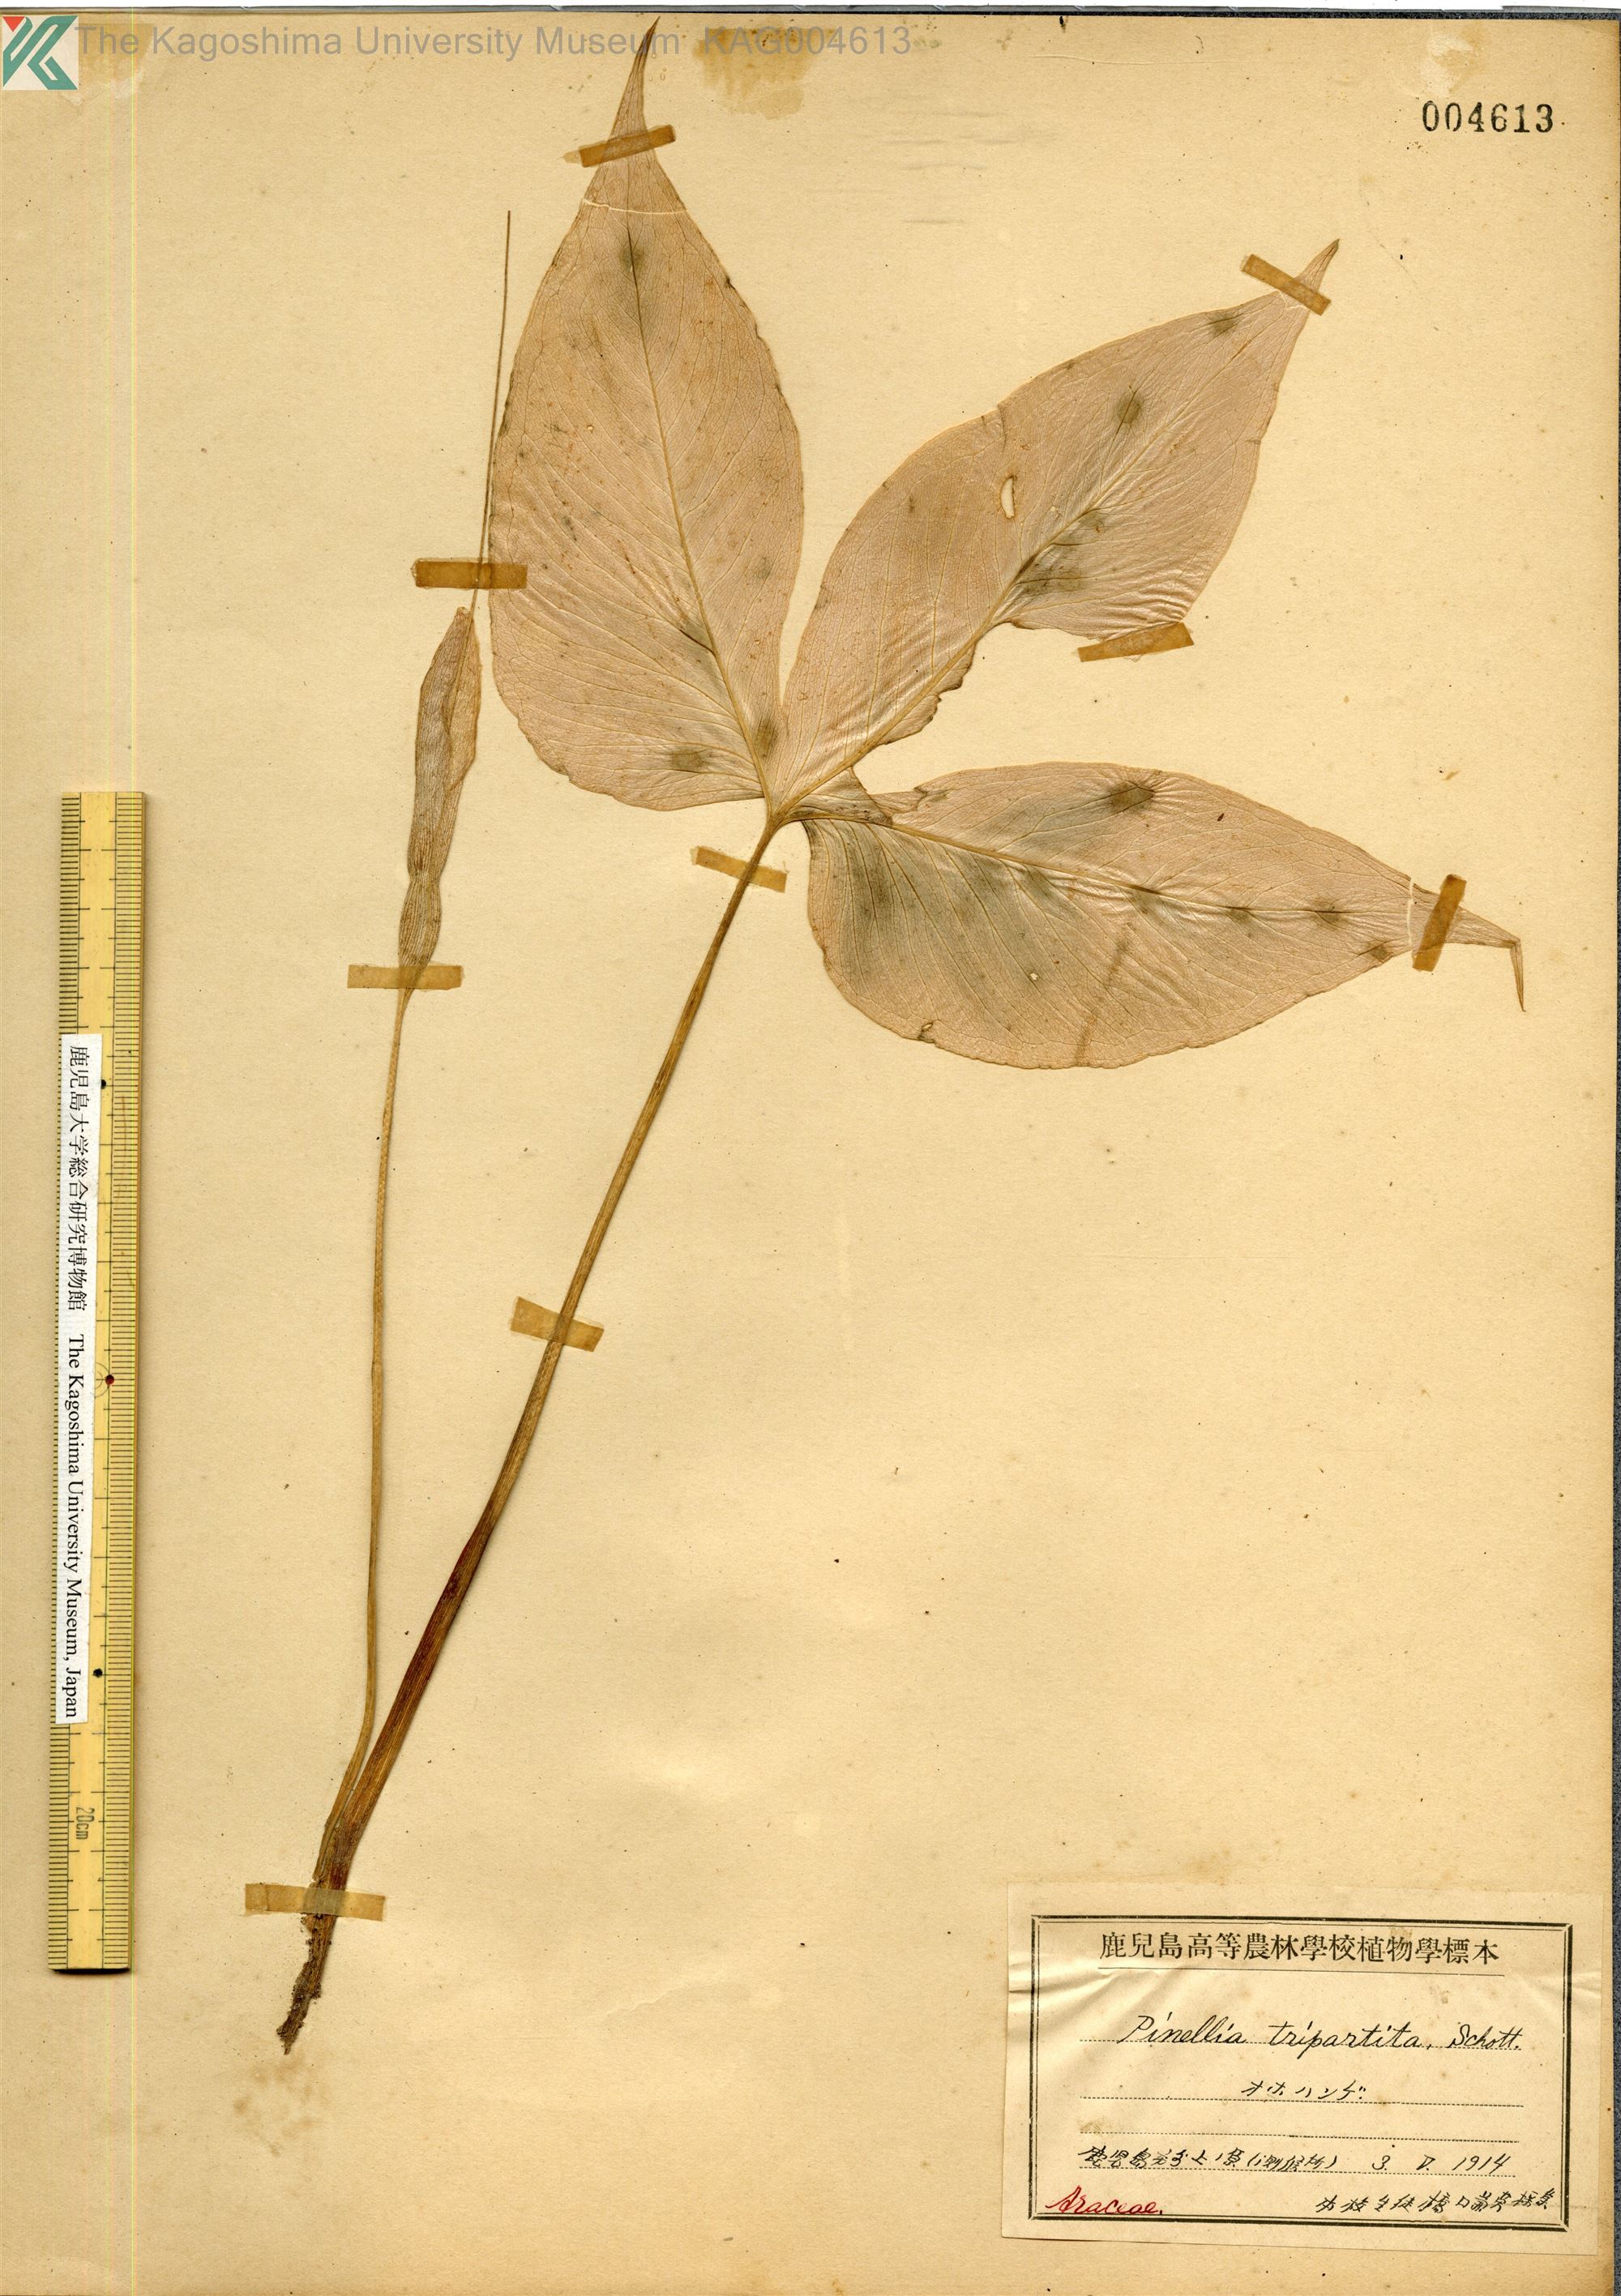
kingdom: Plantae
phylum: Tracheophyta
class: Liliopsida
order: Alismatales
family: Araceae
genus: Pinellia
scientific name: Pinellia tripartita
